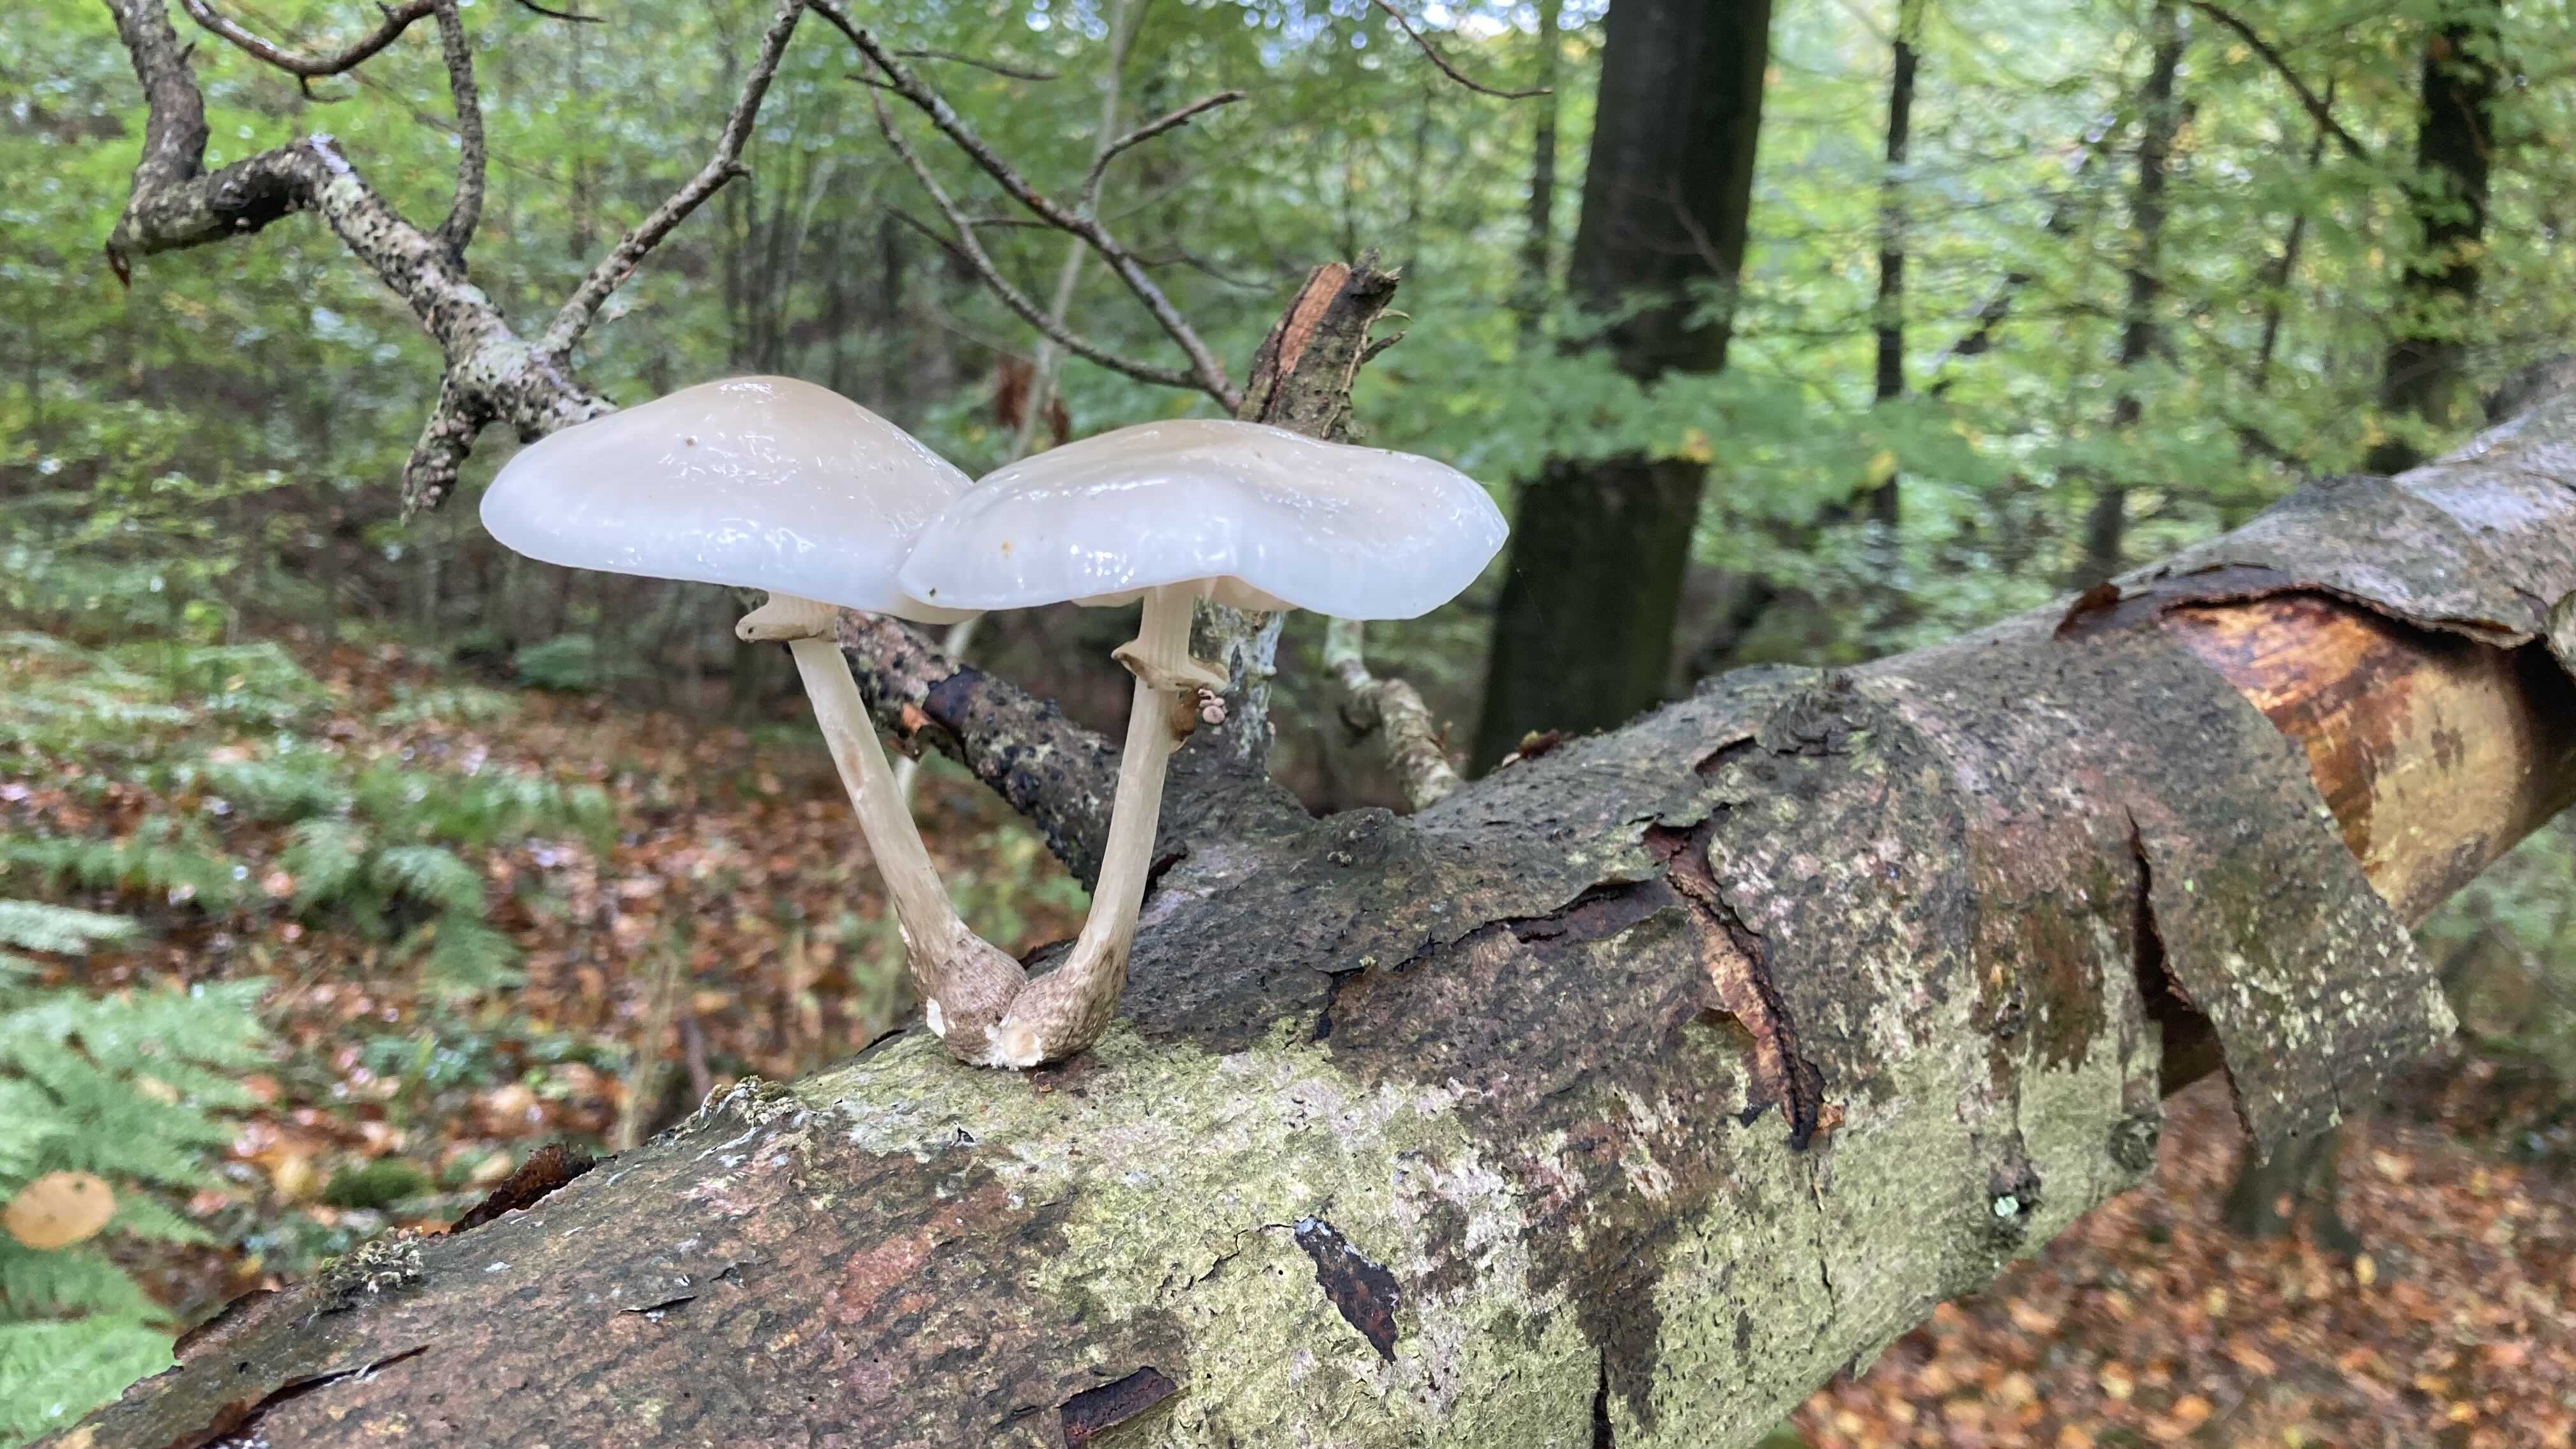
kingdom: Fungi
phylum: Basidiomycota
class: Agaricomycetes
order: Agaricales
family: Physalacriaceae
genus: Mucidula
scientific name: Mucidula mucida
